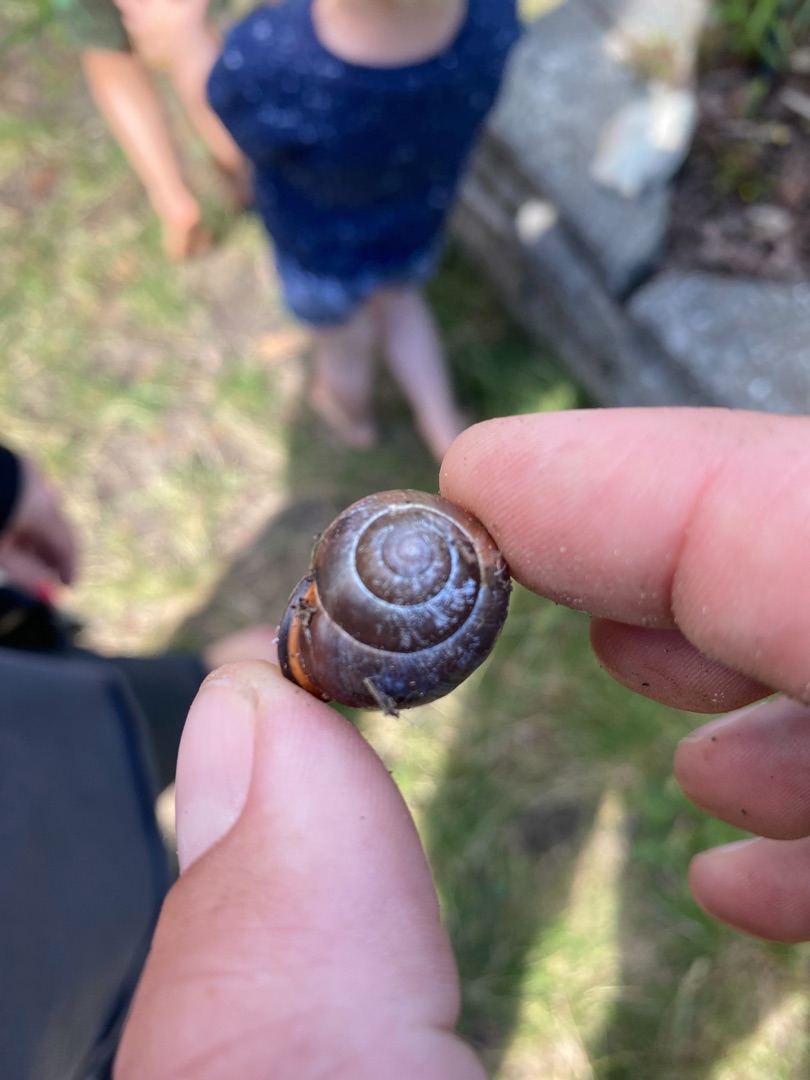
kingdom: Animalia
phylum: Mollusca
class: Gastropoda
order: Stylommatophora
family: Helicidae
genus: Cepaea
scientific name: Cepaea nemoralis
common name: Lundsnegl
